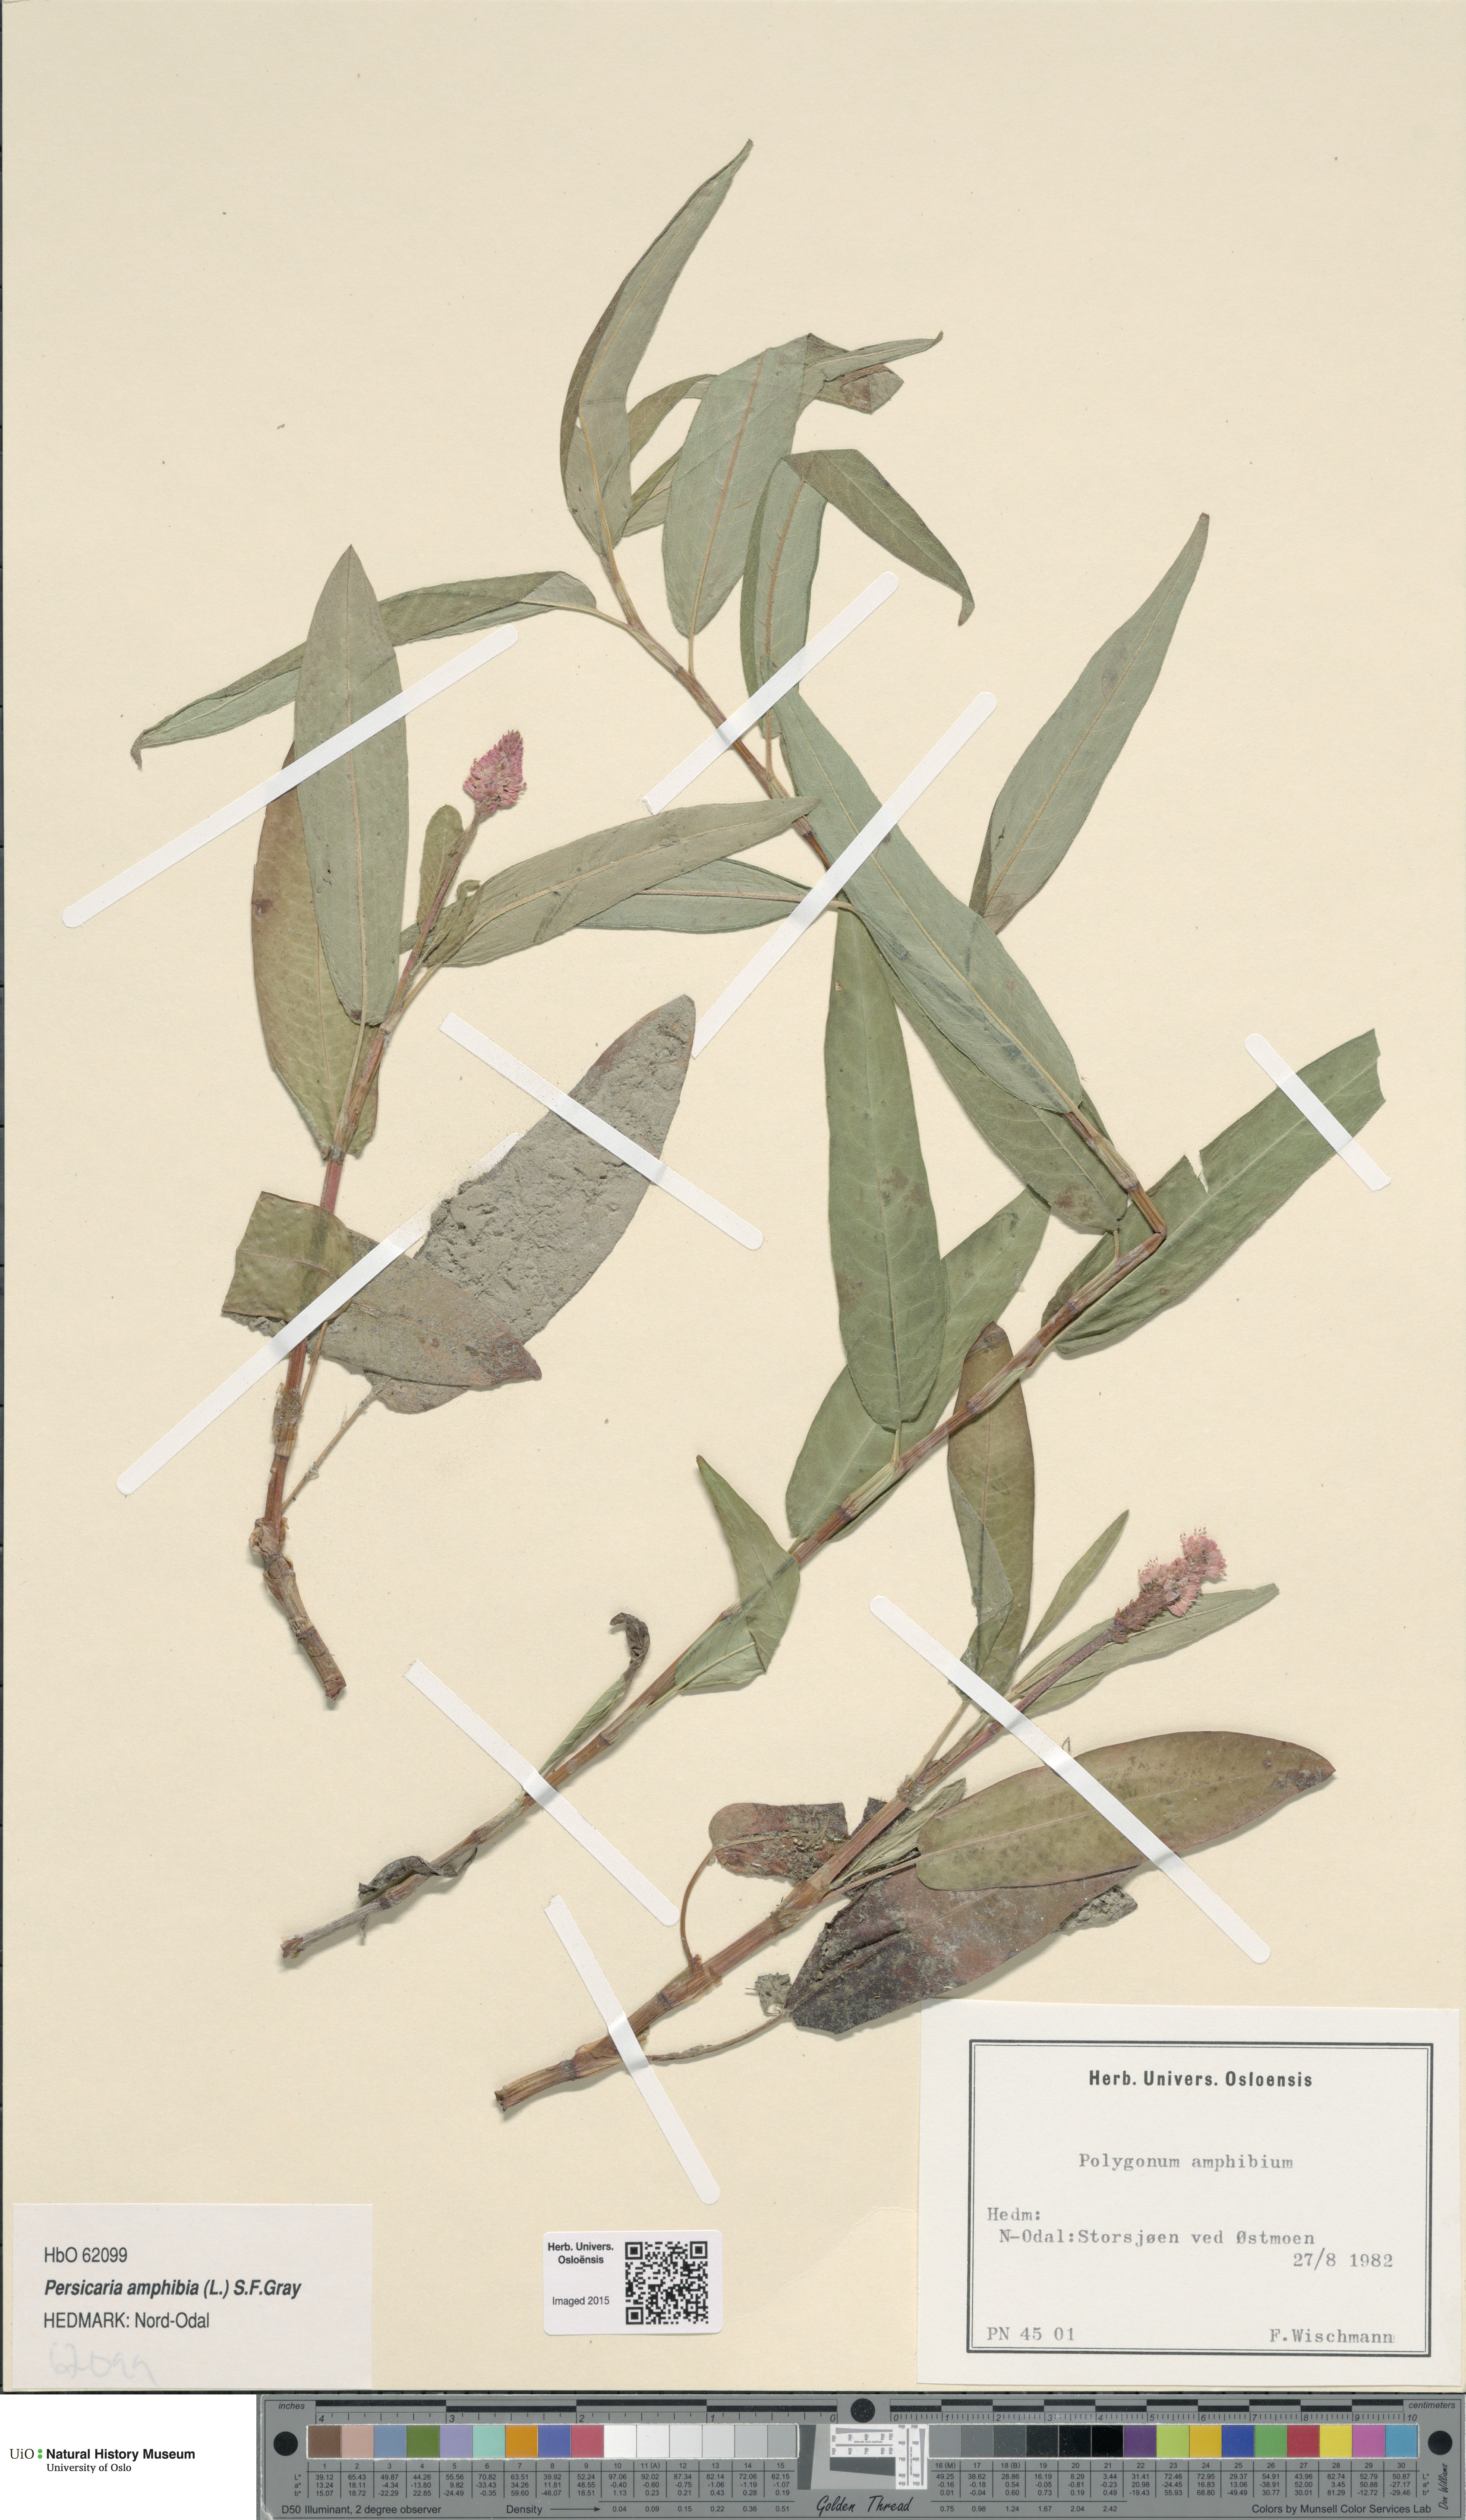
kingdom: Plantae
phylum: Tracheophyta
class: Magnoliopsida
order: Caryophyllales
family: Polygonaceae
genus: Persicaria
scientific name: Persicaria amphibia
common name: Amphibious bistort
